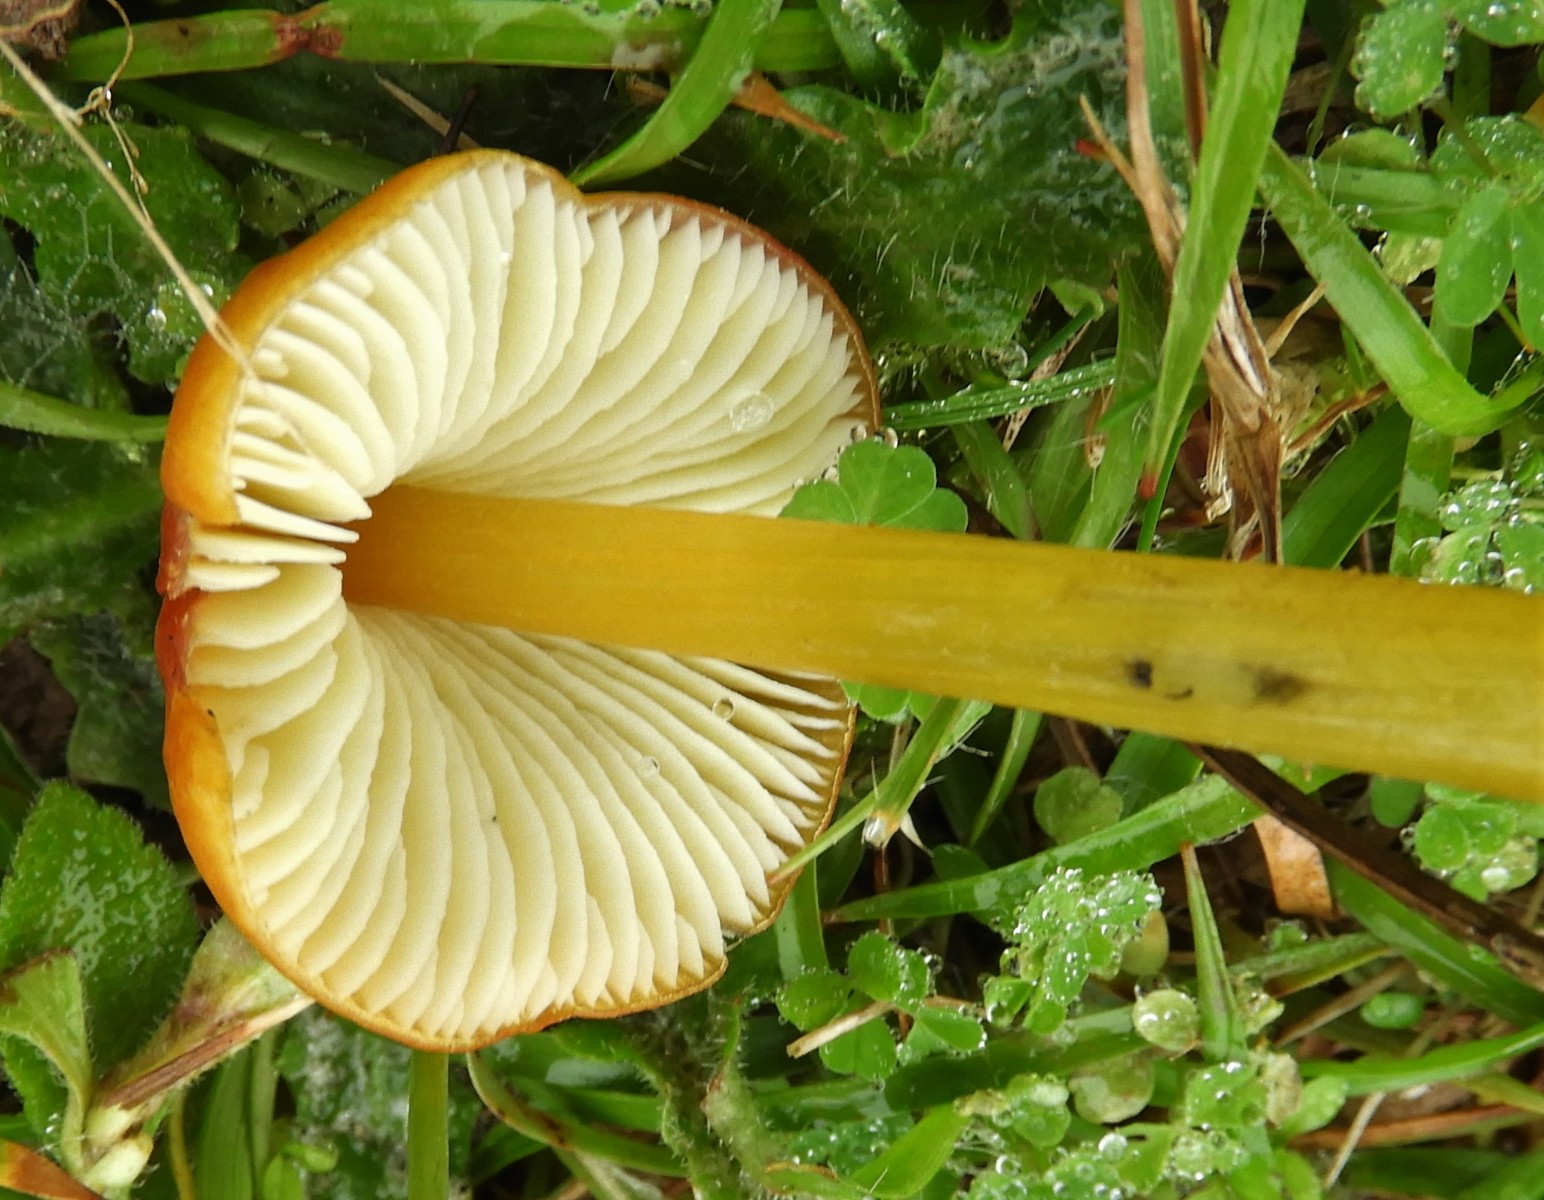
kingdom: Fungi
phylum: Basidiomycota
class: Agaricomycetes
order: Agaricales
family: Hygrophoraceae
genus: Hygrocybe
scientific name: Hygrocybe conica
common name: kegle-vokshat
